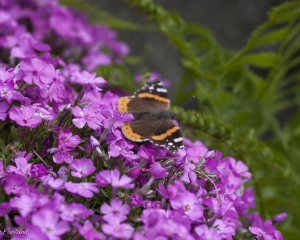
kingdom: Animalia
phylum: Arthropoda
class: Insecta
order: Lepidoptera
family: Nymphalidae
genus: Vanessa
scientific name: Vanessa atalanta
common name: Red Admiral
